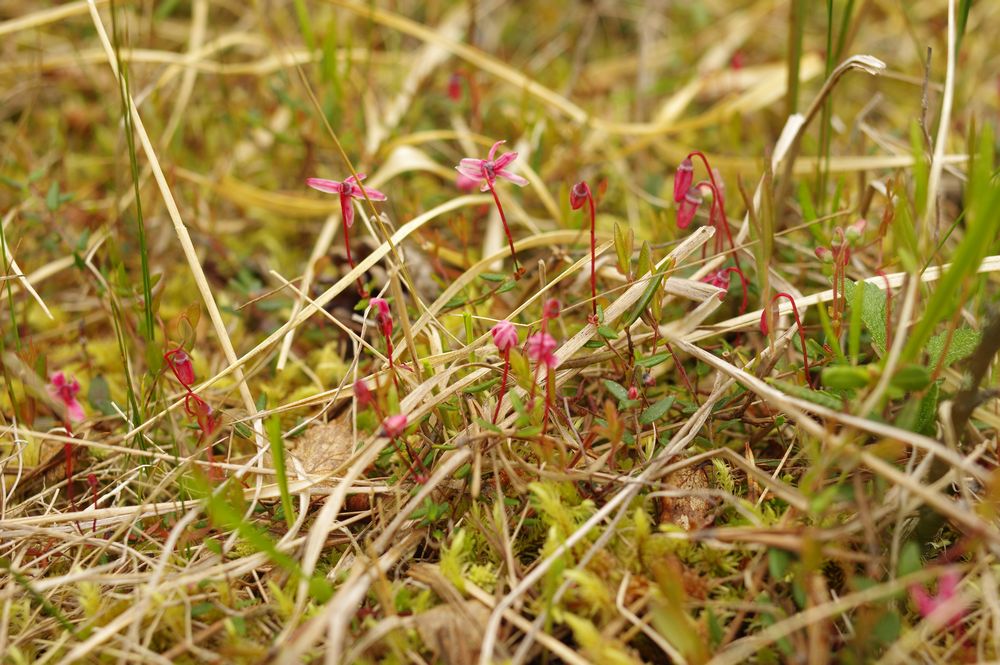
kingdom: Plantae
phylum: Tracheophyta
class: Magnoliopsida
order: Ericales
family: Ericaceae
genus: Vaccinium
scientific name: Vaccinium microcarpum
